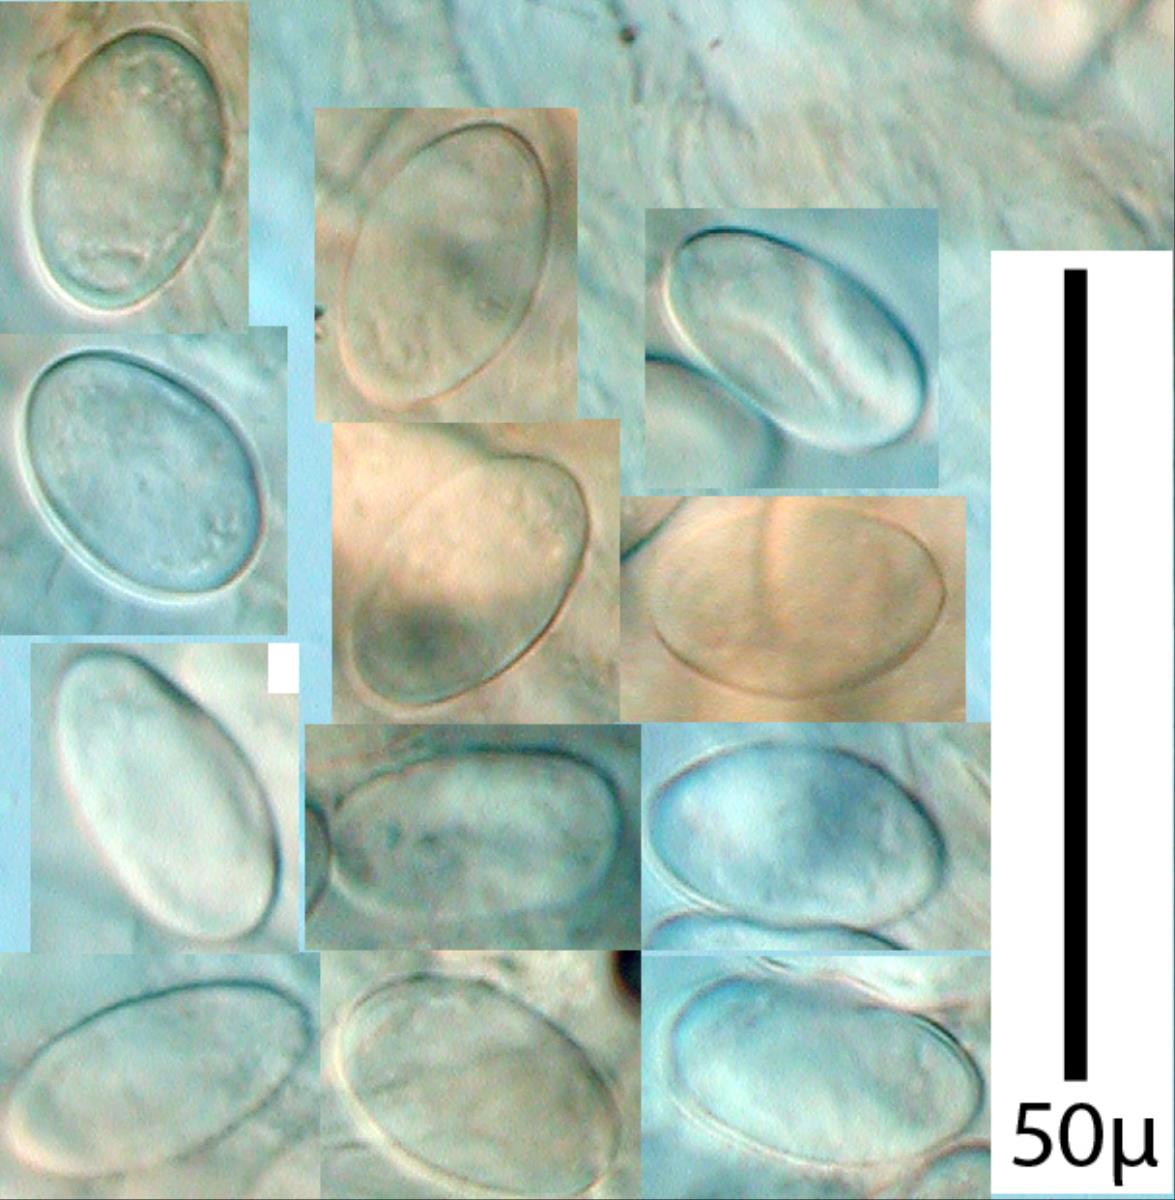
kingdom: Fungi
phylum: Ascomycota
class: Pezizomycetes
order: Pezizales
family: Pezizaceae
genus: Peziza
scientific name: Peziza oceanica
